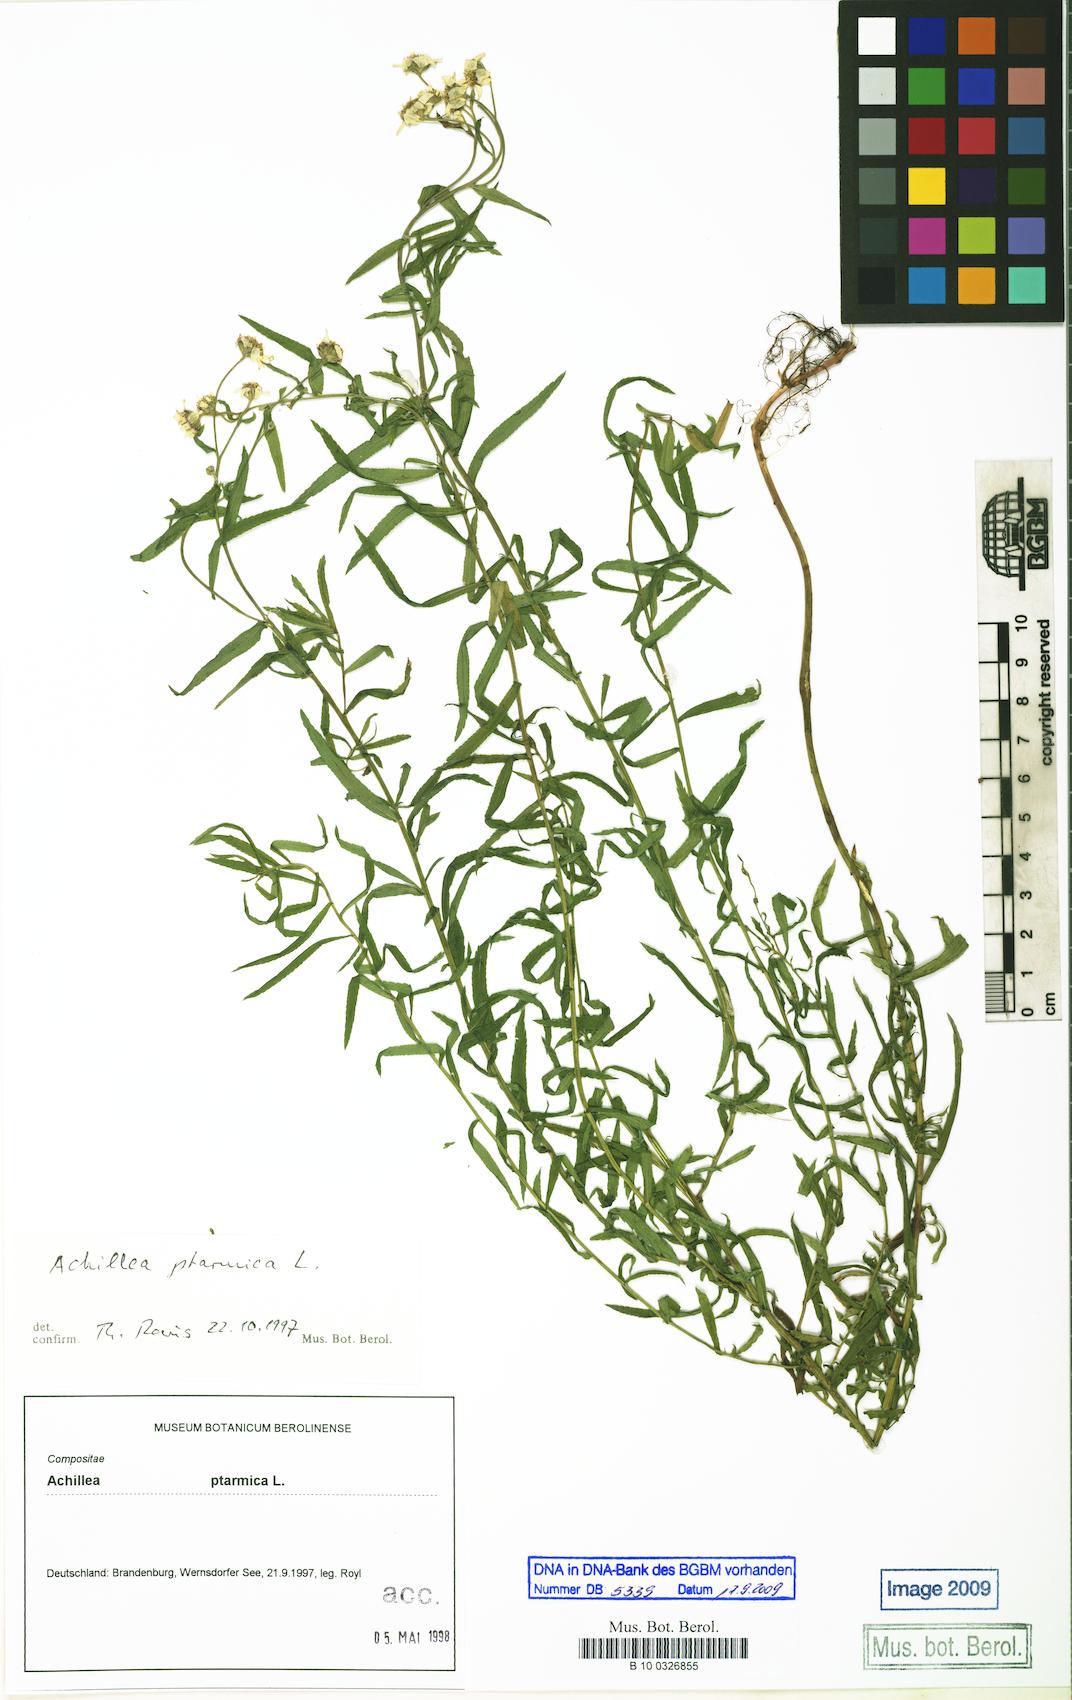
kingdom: Plantae
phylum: Tracheophyta
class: Magnoliopsida
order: Asterales
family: Asteraceae
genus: Achillea
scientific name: Achillea ptarmica
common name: Sneezeweed
